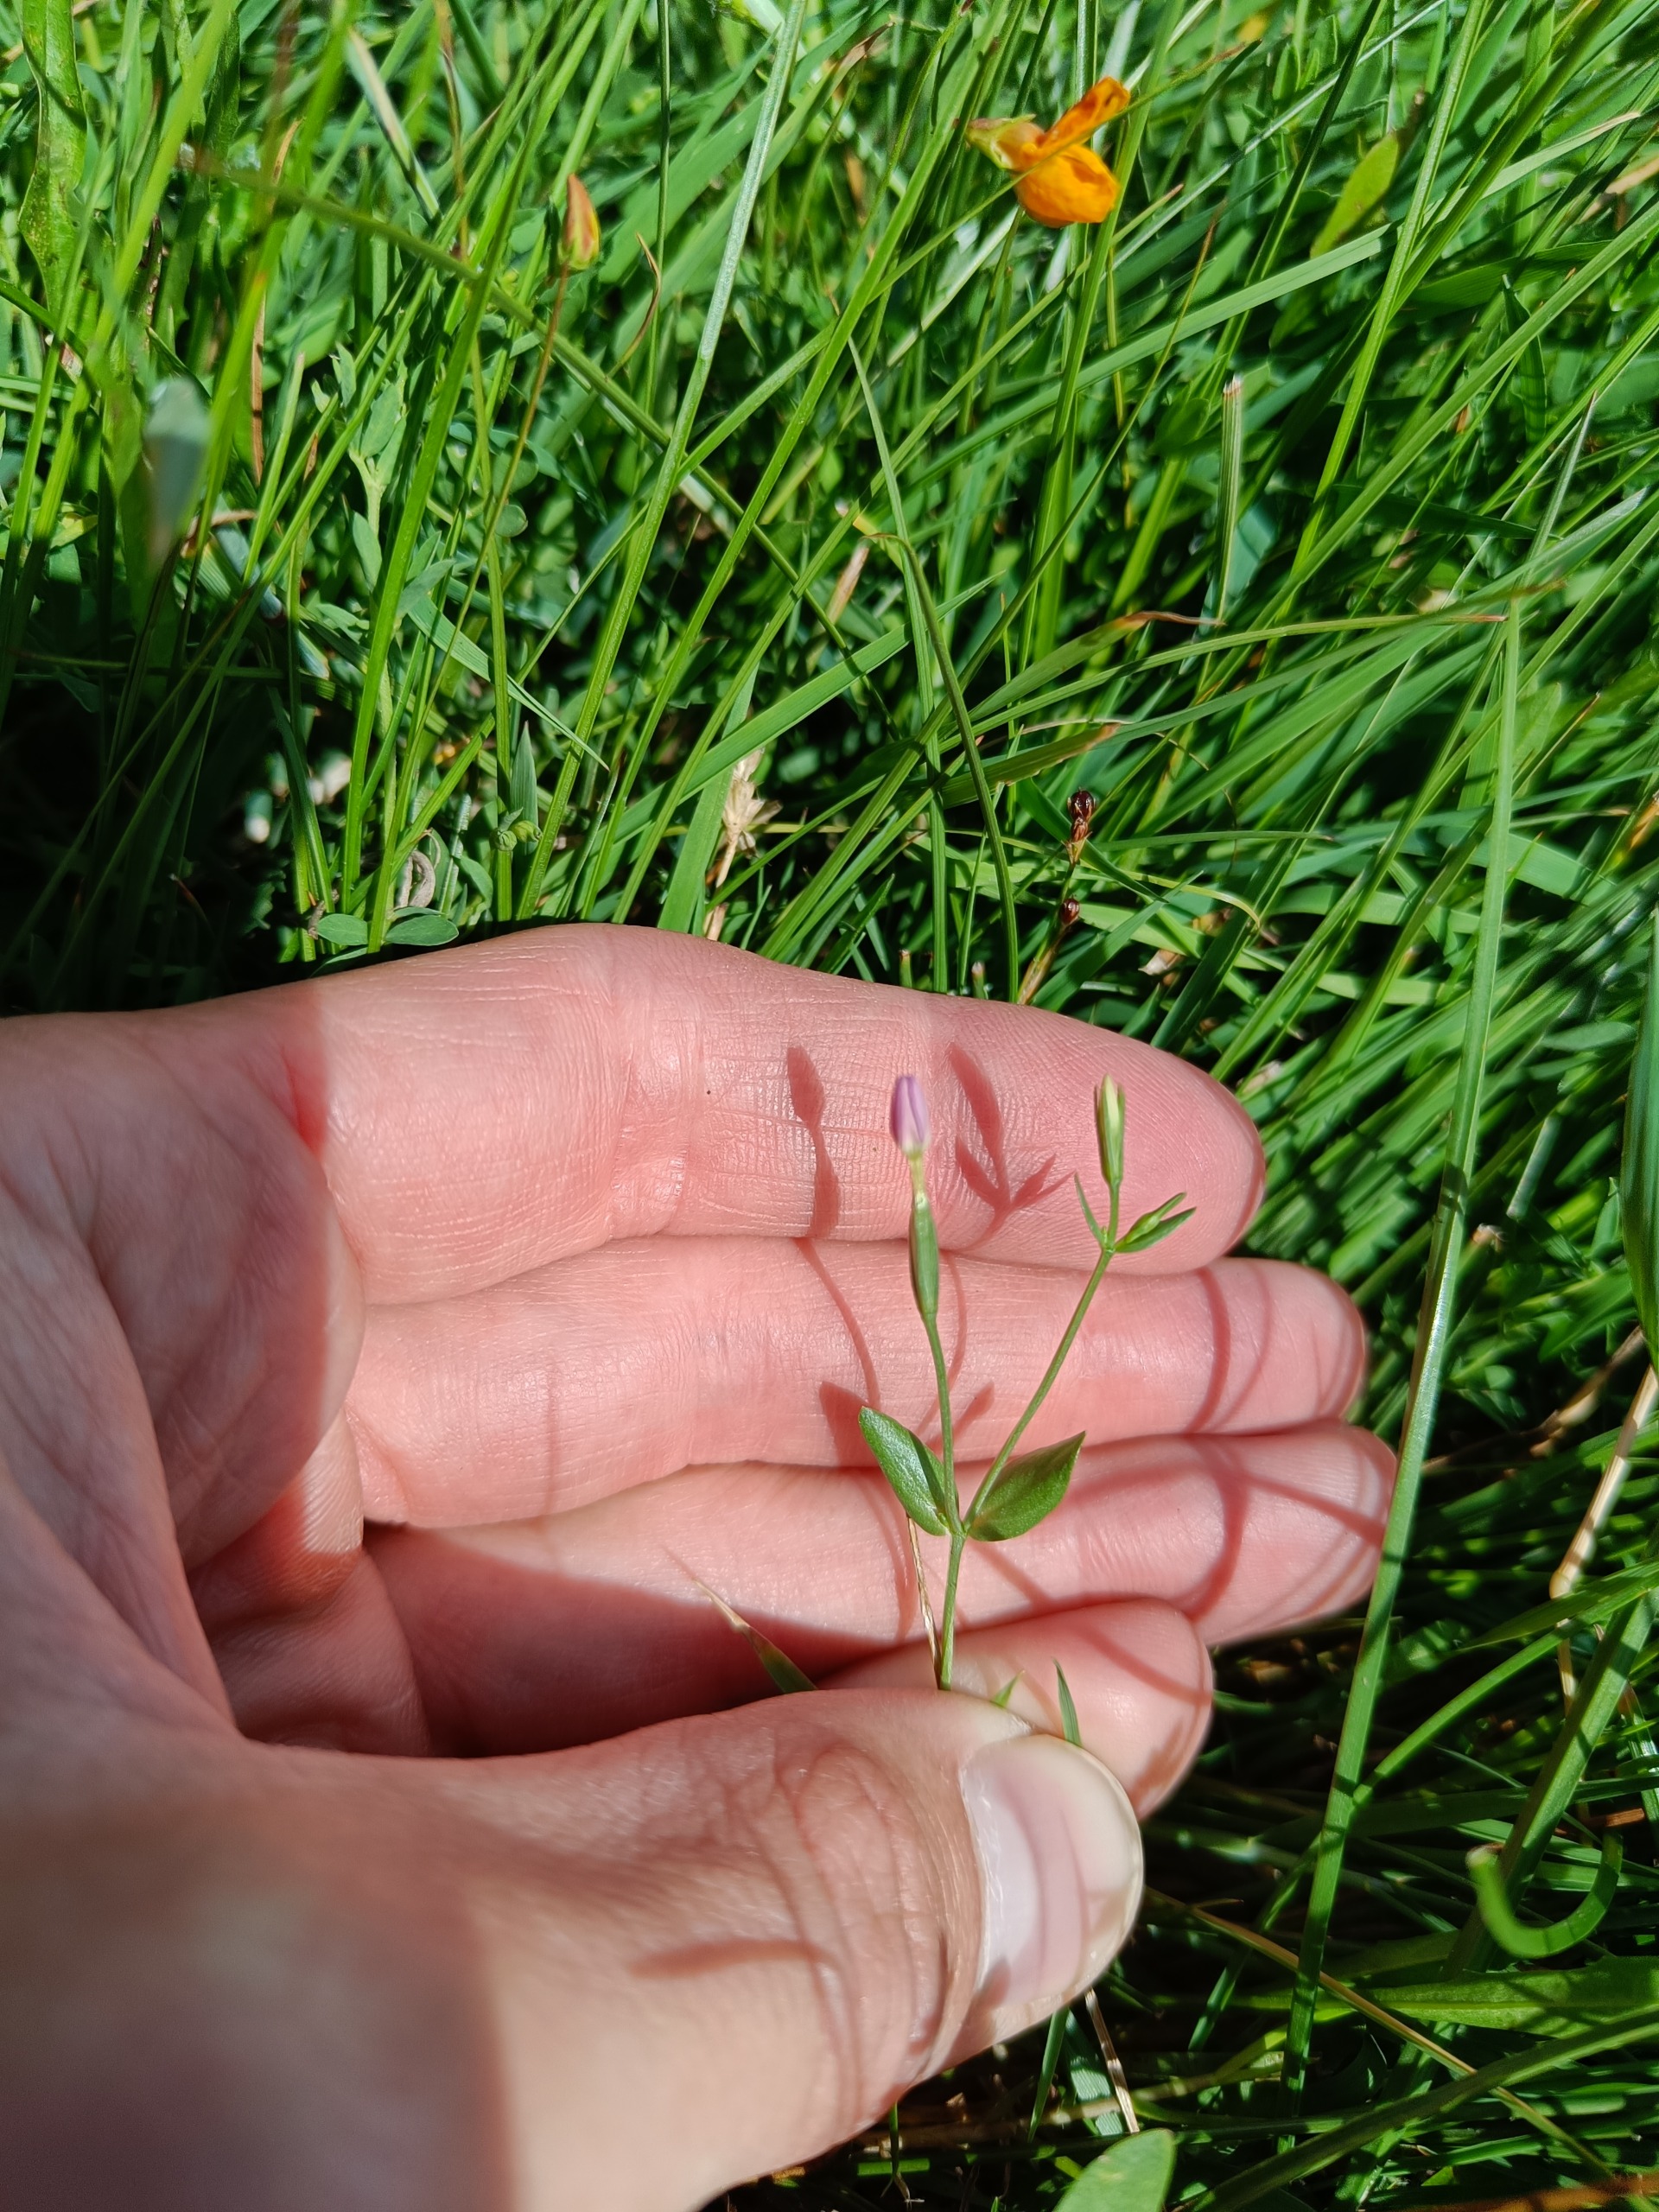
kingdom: Plantae
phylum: Tracheophyta
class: Magnoliopsida
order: Gentianales
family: Gentianaceae
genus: Centaurium
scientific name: Centaurium pulchellum
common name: Liden tusindgylden
